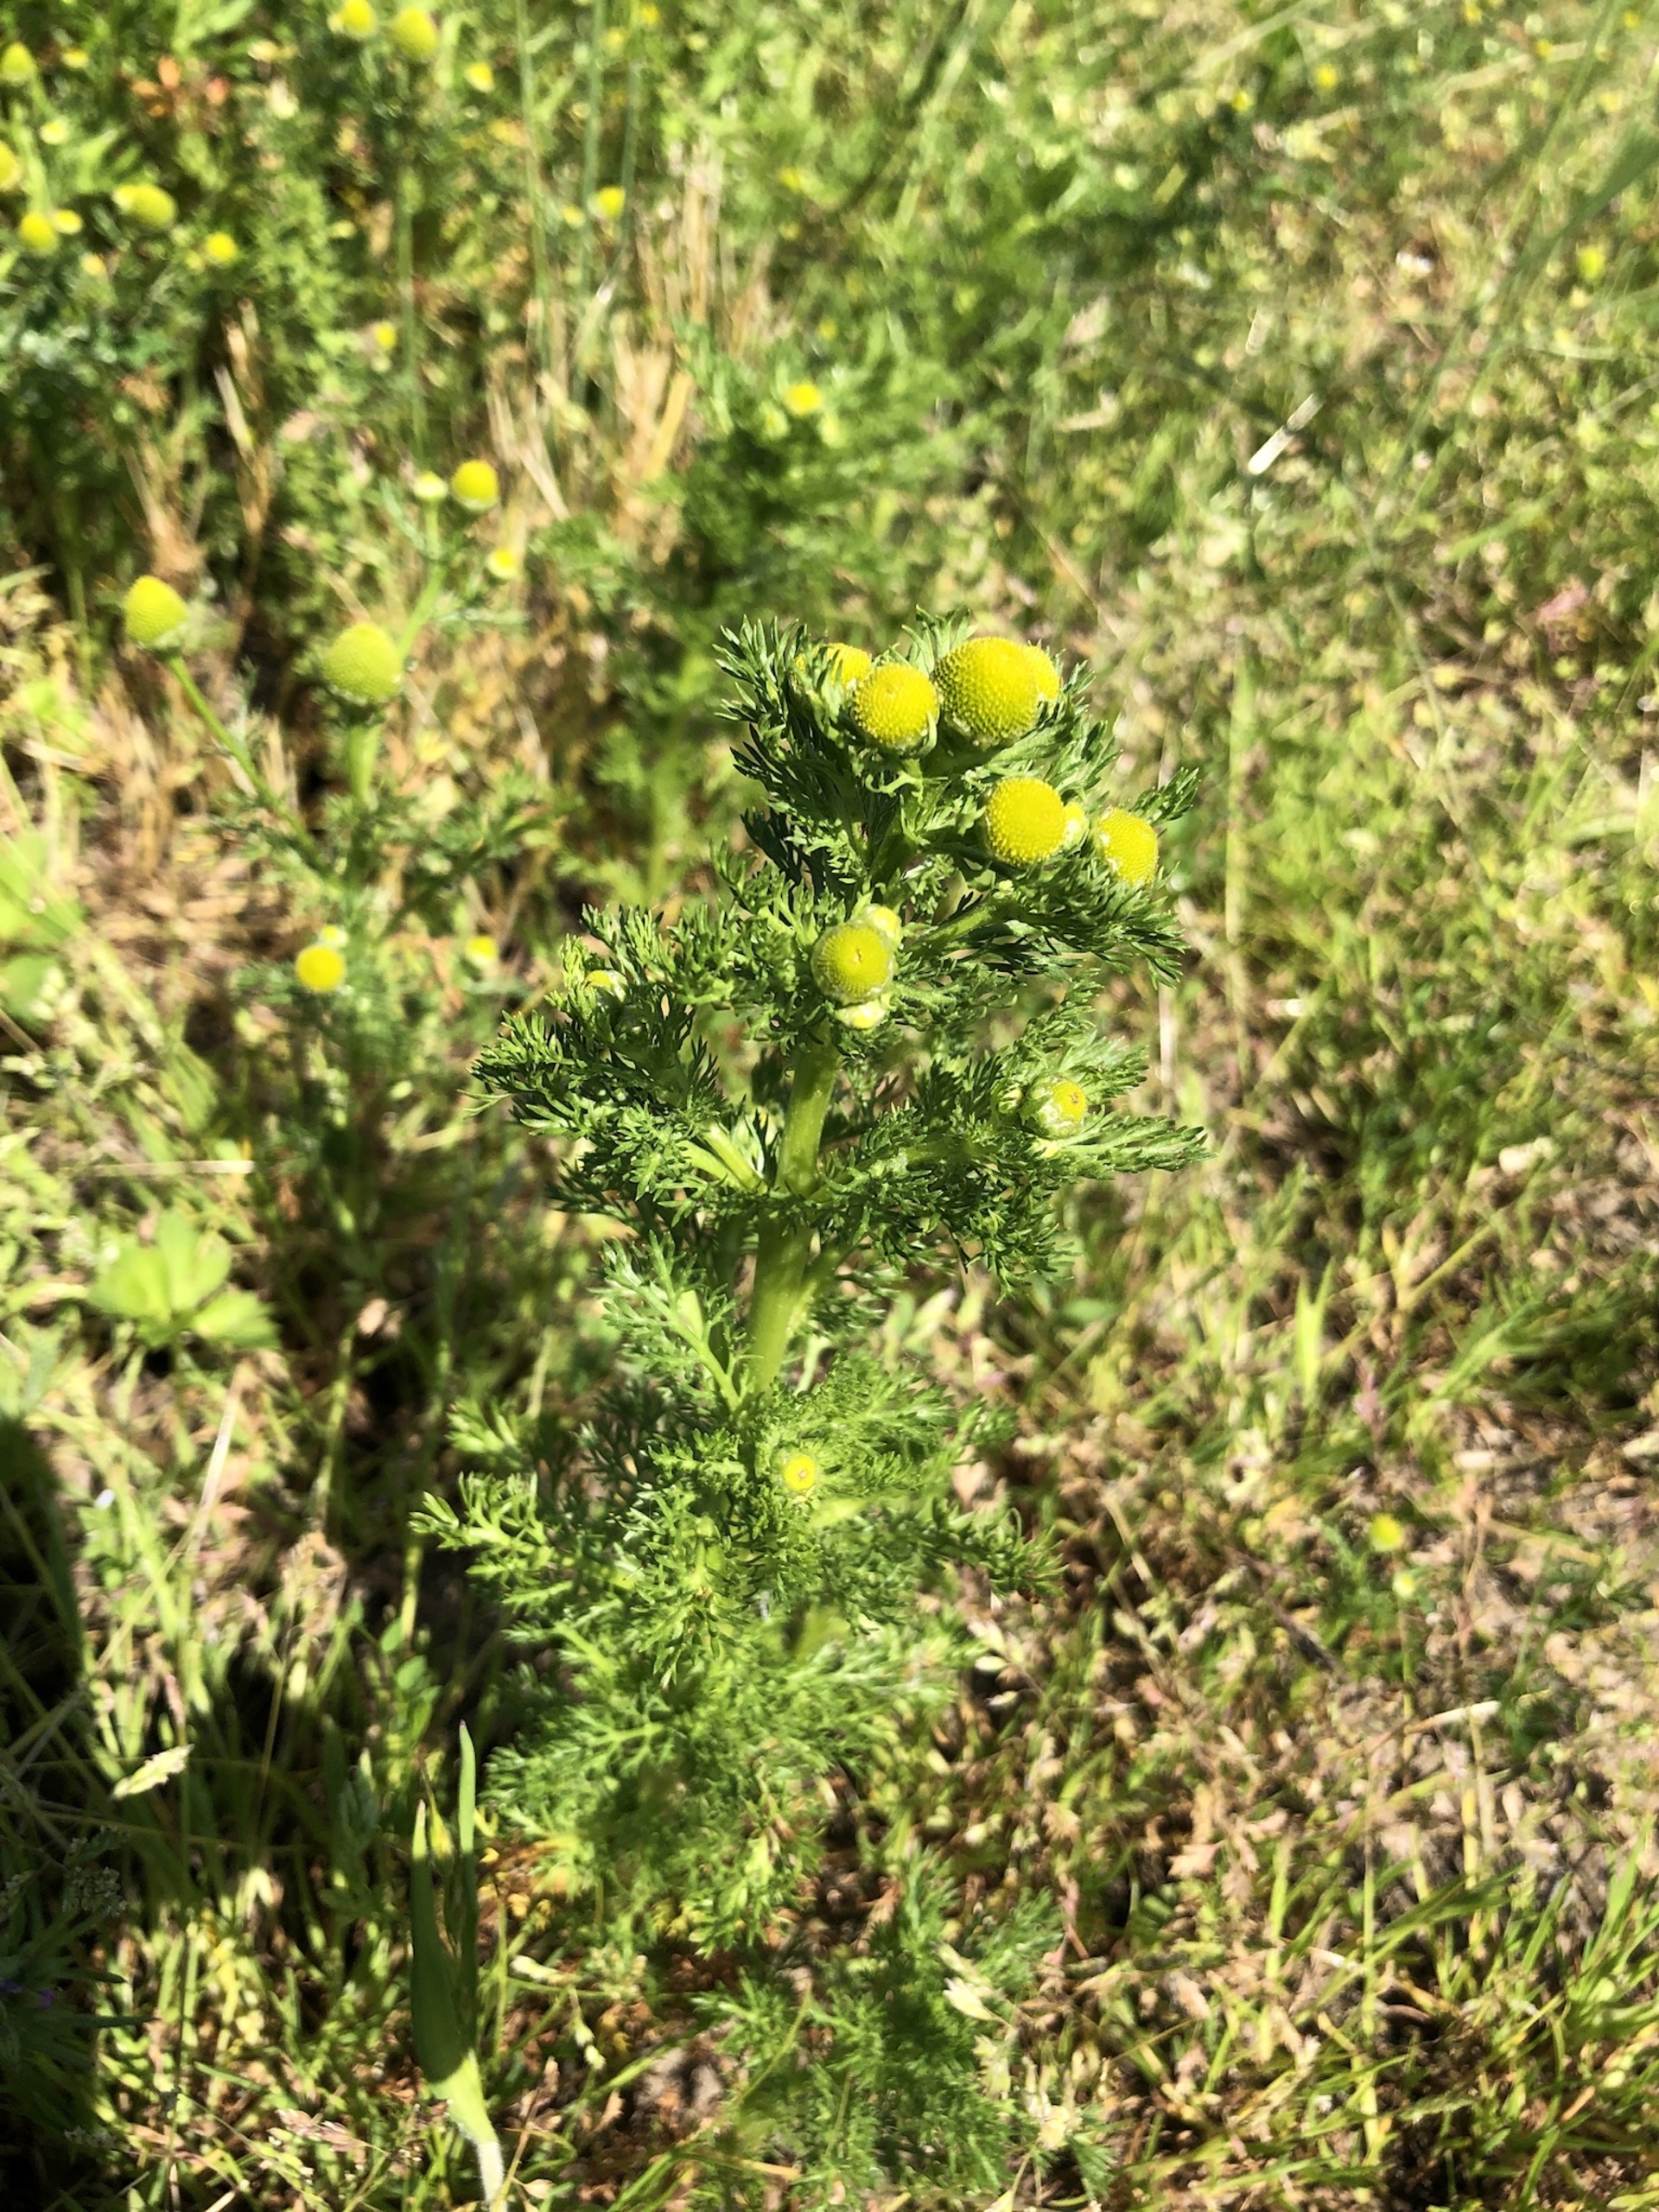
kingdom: Plantae
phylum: Tracheophyta
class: Magnoliopsida
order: Asterales
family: Asteraceae
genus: Matricaria
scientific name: Matricaria discoidea
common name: Skive-kamille
